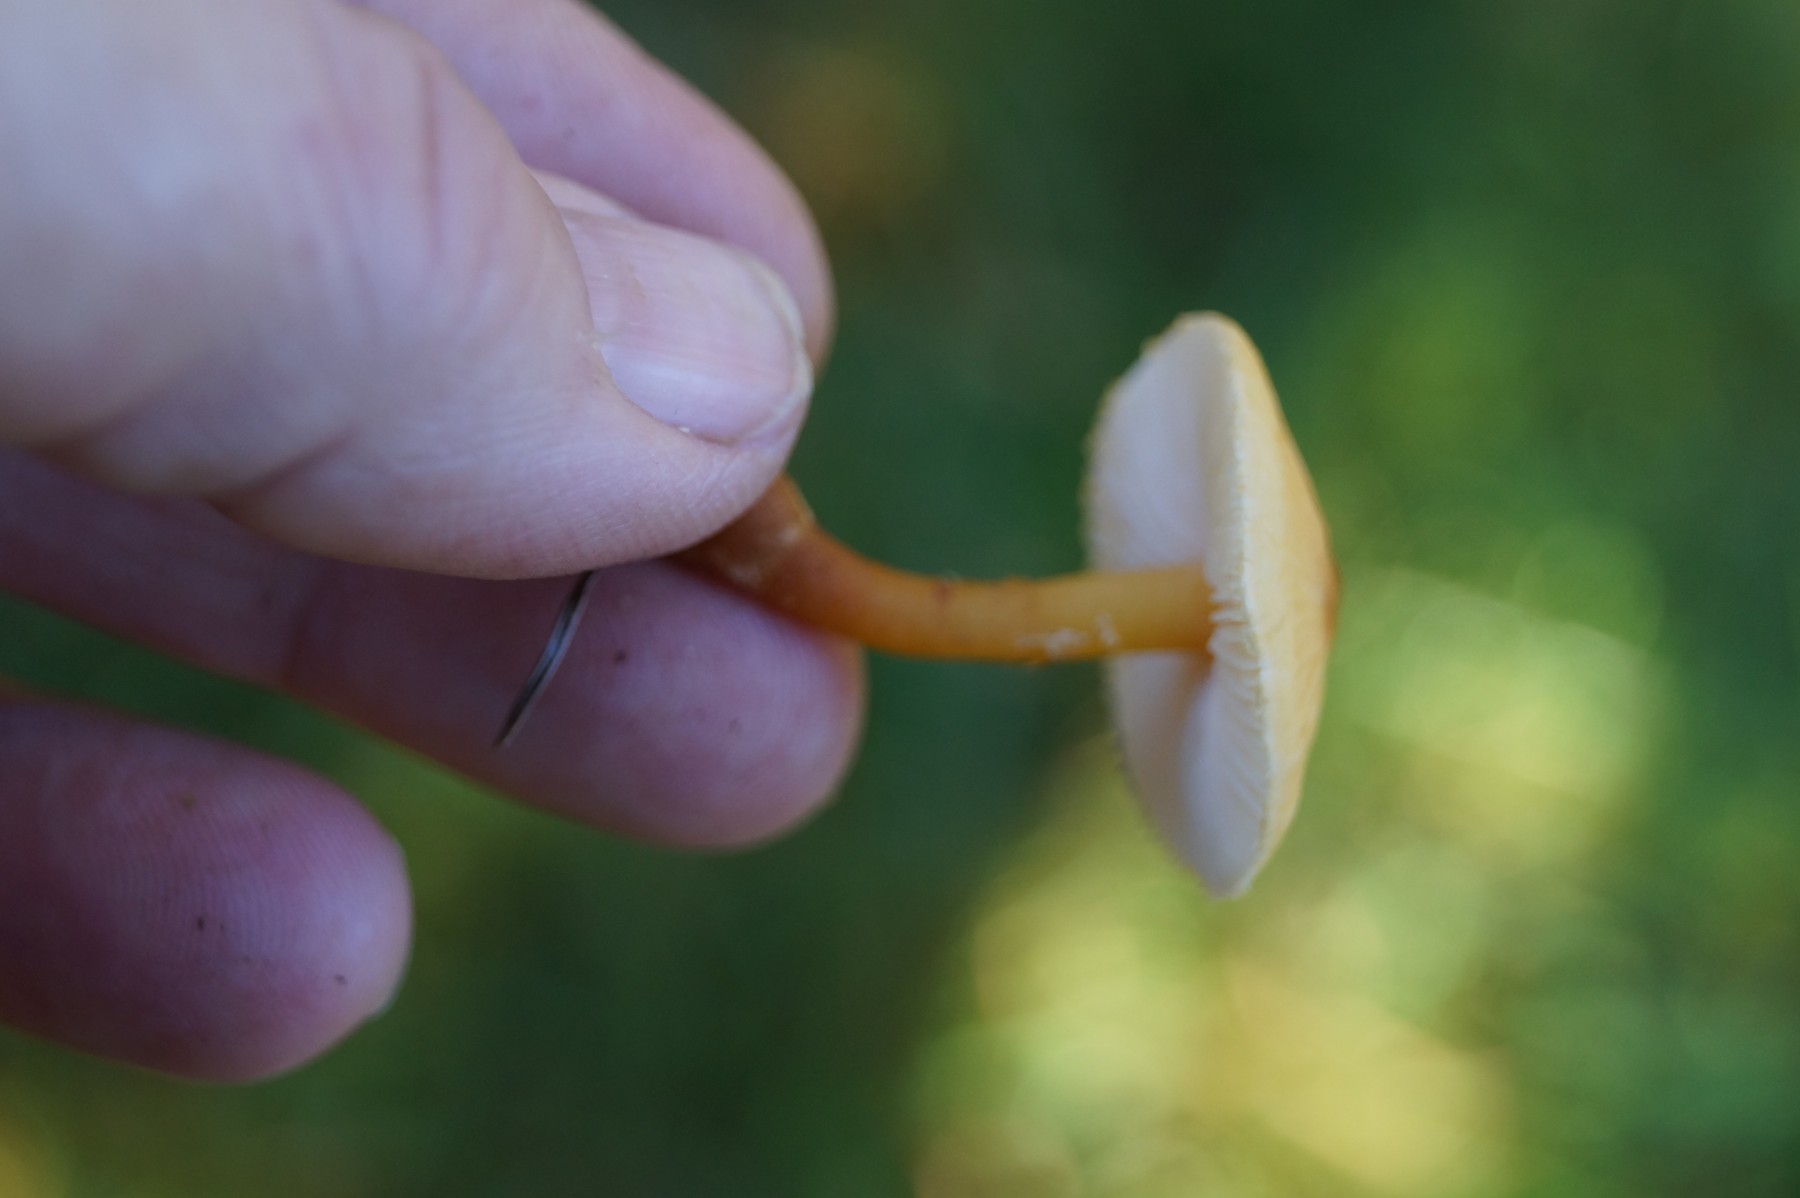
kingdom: Fungi
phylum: Basidiomycota
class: Agaricomycetes
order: Agaricales
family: Tricholomataceae
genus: Cystoderma
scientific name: Cystoderma amianthinum
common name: okkergul grynhat
